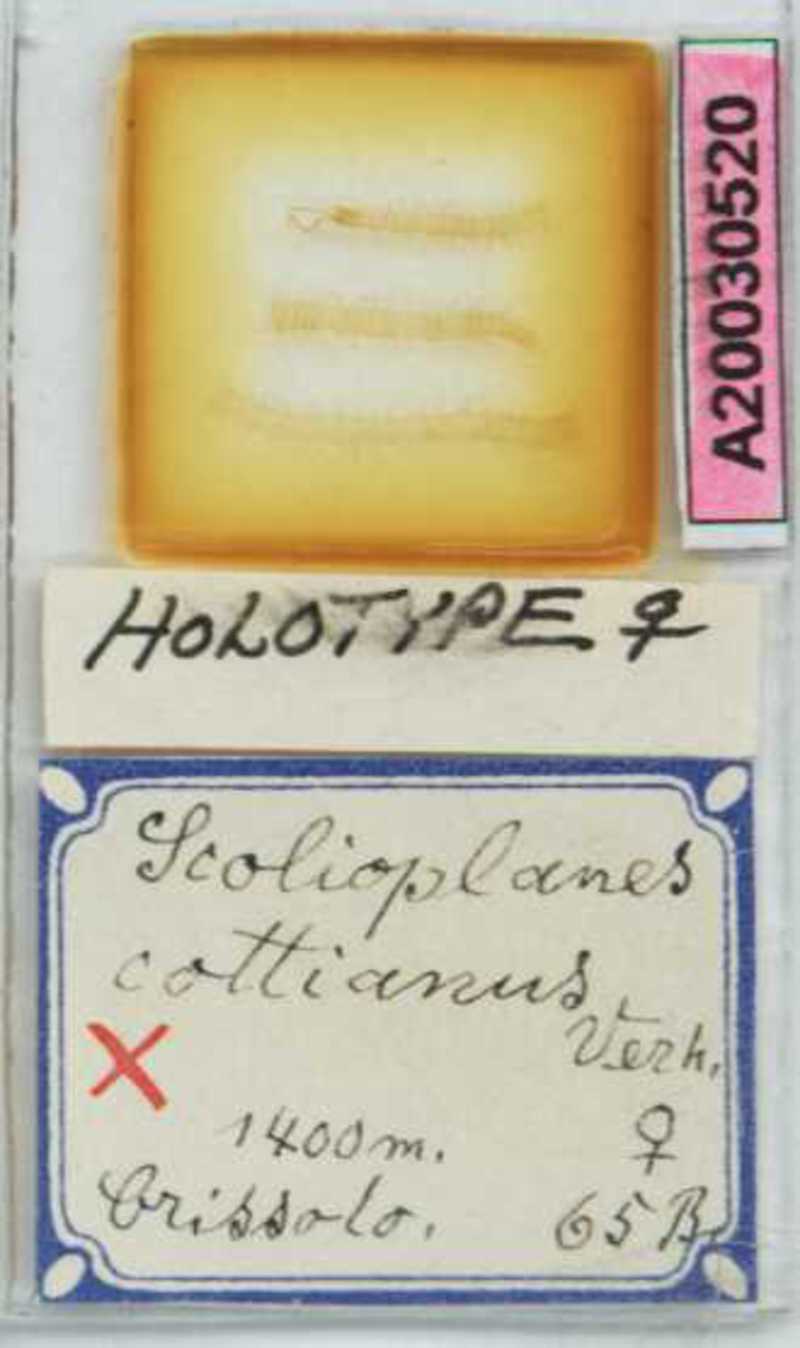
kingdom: Animalia
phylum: Arthropoda
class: Chilopoda
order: Geophilomorpha
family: Linotaeniidae
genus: Strigamia
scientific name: Strigamia cottiana
